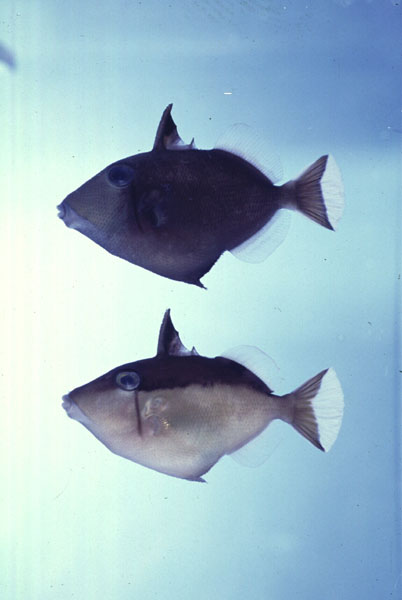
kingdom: Animalia
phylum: Chordata
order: Tetraodontiformes
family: Balistidae
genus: Sufflamen
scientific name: Sufflamen chrysopterum
